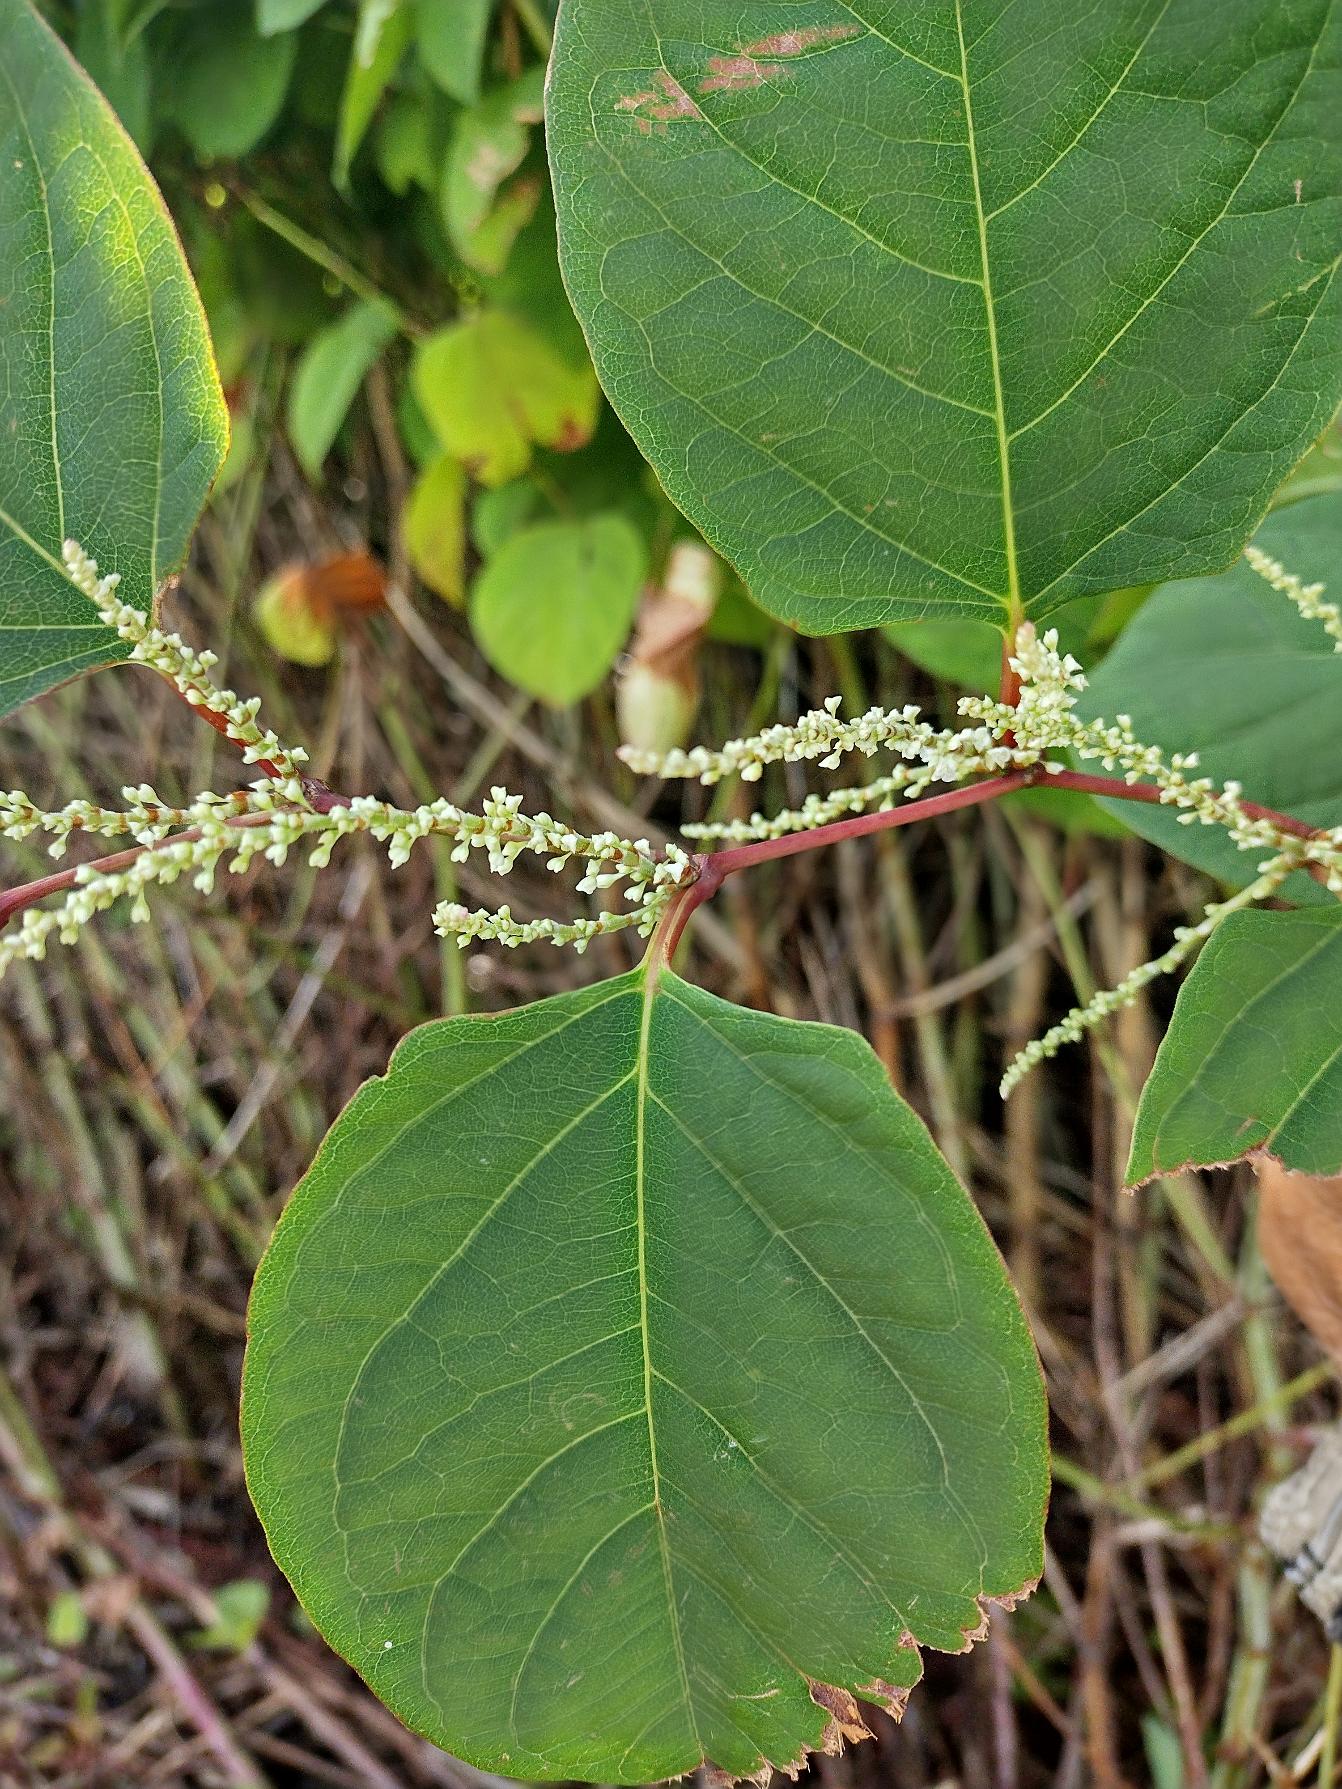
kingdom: Plantae
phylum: Tracheophyta
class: Magnoliopsida
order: Caryophyllales
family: Polygonaceae
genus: Reynoutria
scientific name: Reynoutria japonica
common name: Japan-pileurt
